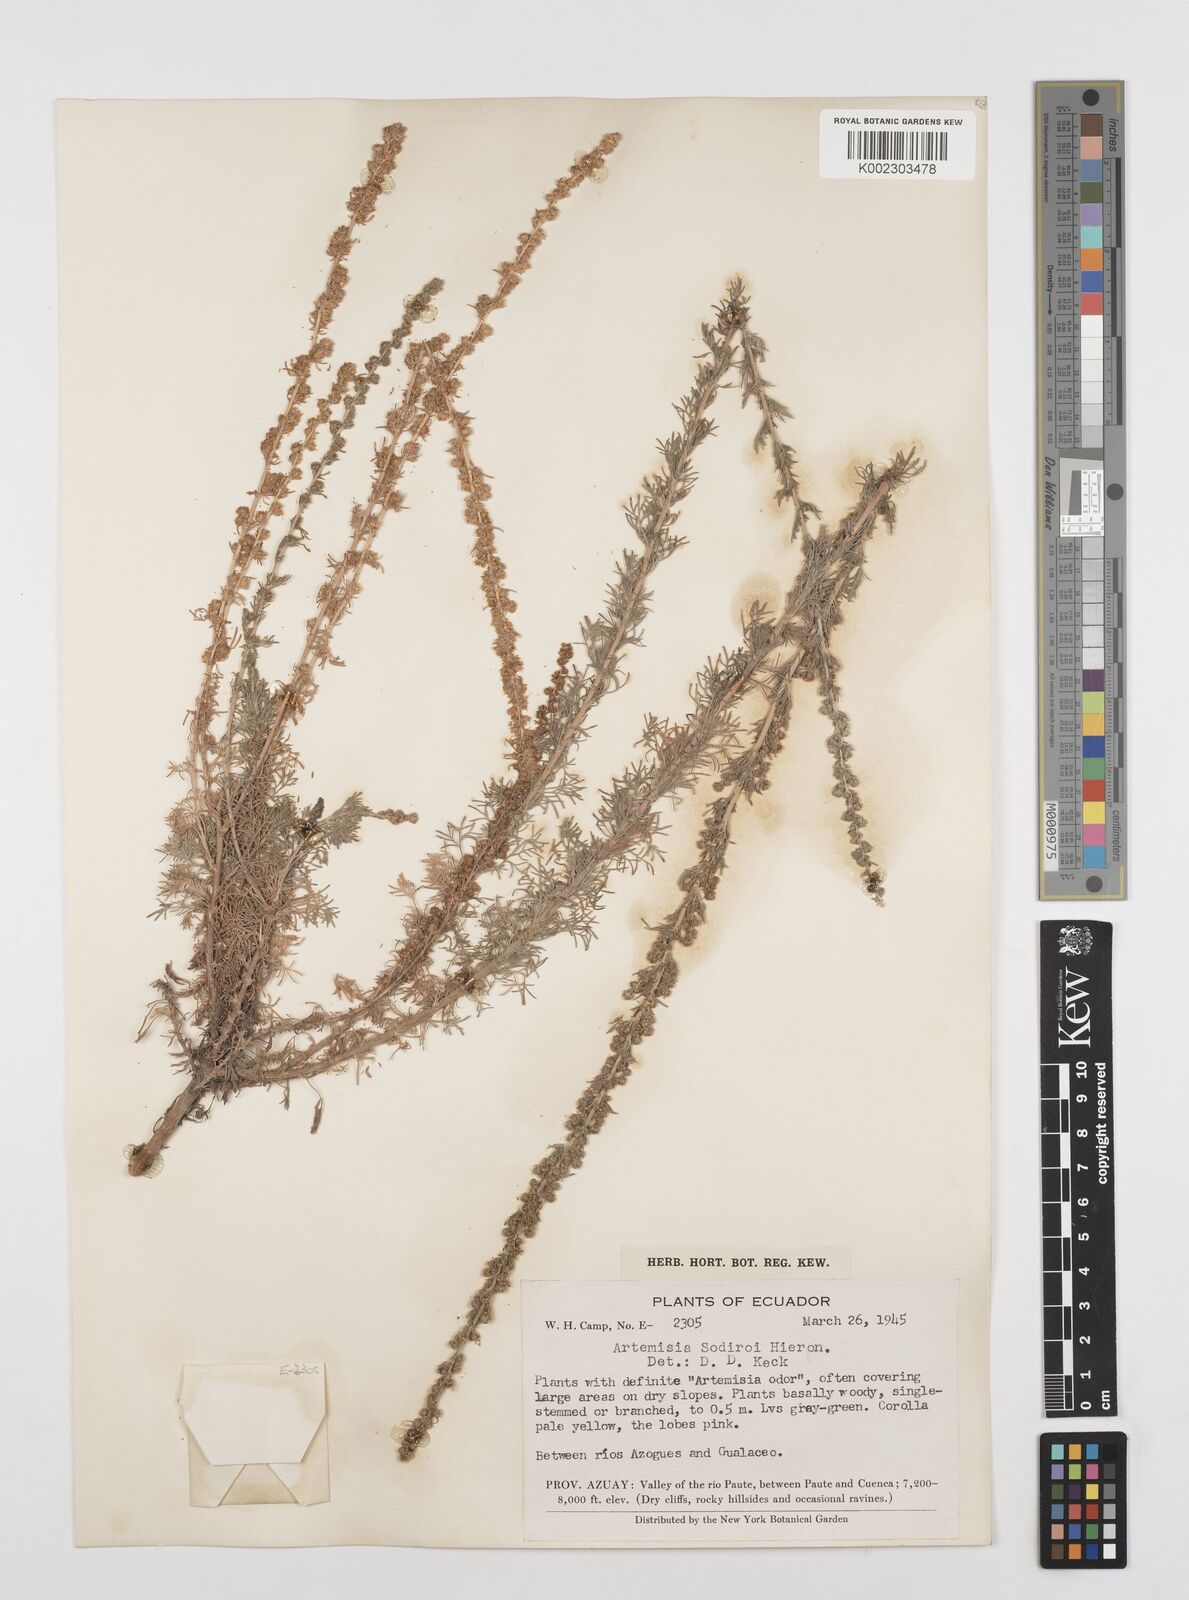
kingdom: Plantae
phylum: Tracheophyta
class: Magnoliopsida
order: Asterales
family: Asteraceae
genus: Artemisia
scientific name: Artemisia sodiroi
